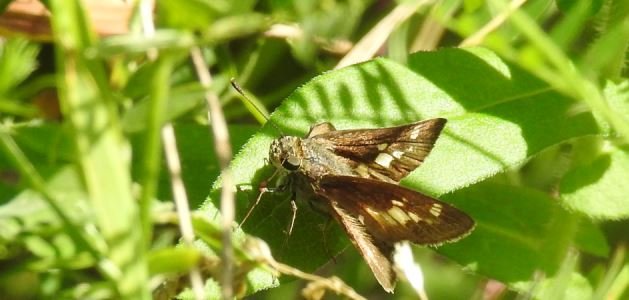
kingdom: Animalia
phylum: Arthropoda
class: Insecta
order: Lepidoptera
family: Hesperiidae
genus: Vernia
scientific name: Vernia verna
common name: Little Glassywing
